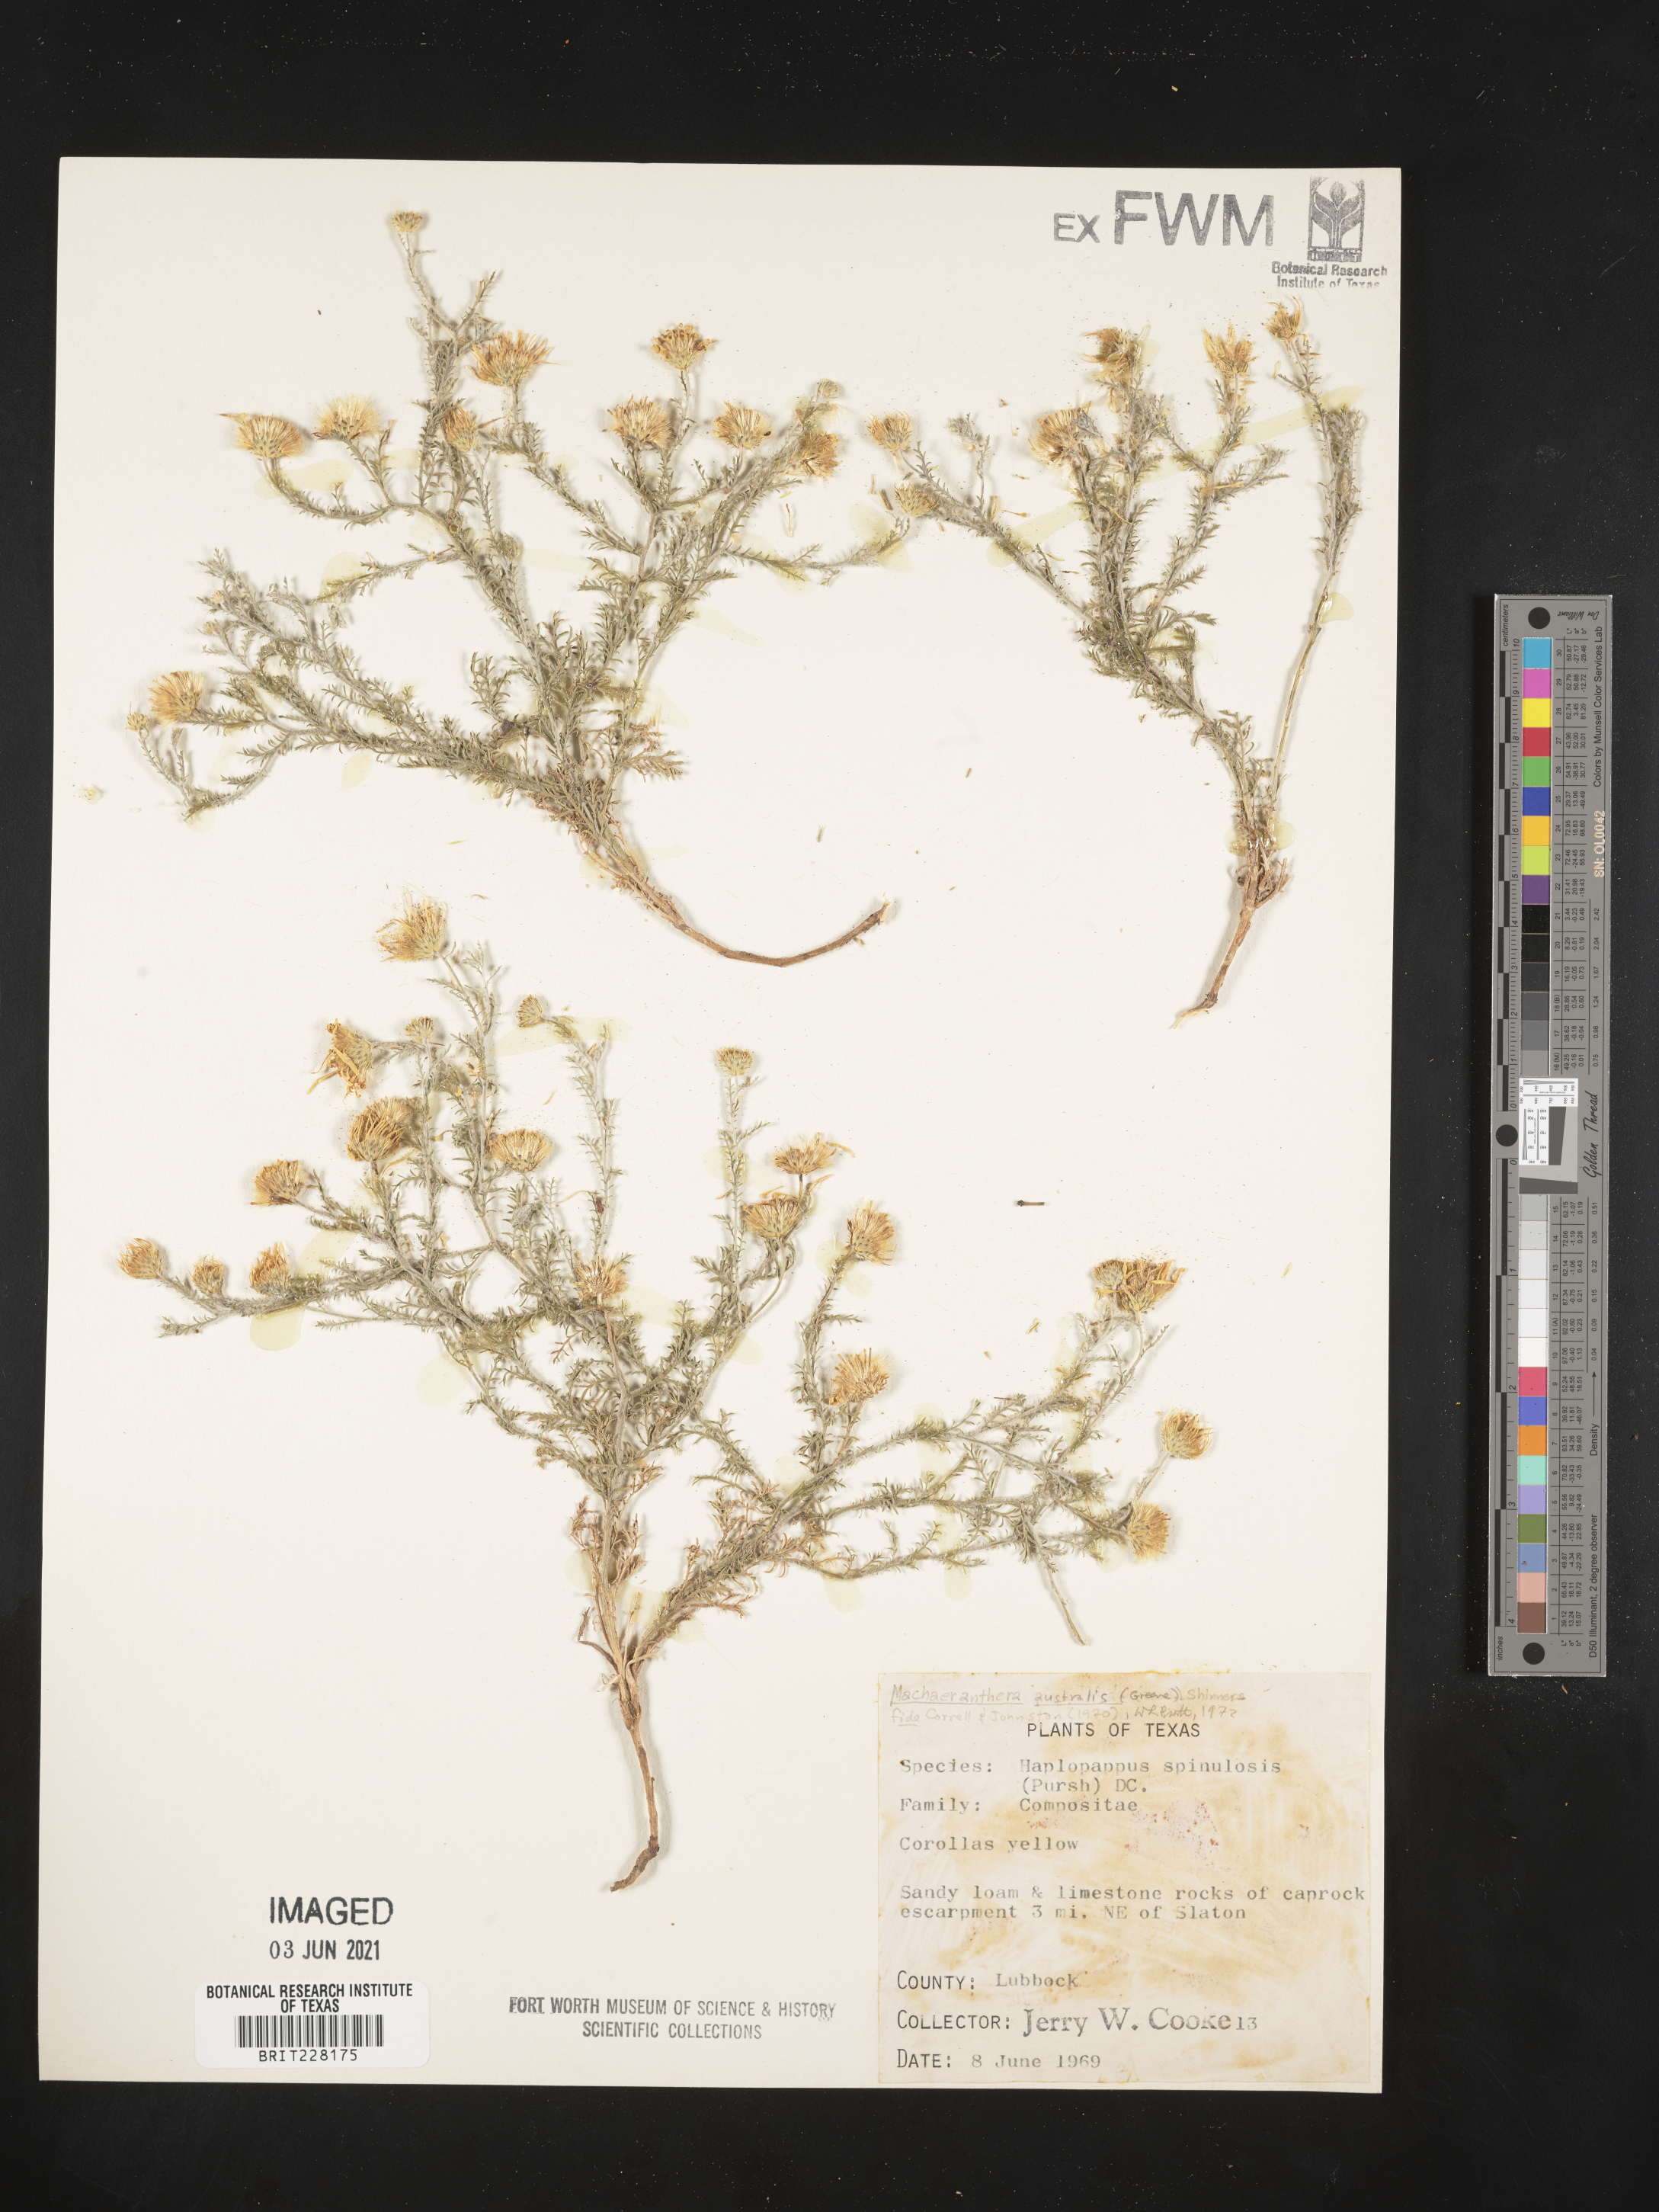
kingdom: Plantae
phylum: Tracheophyta
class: Magnoliopsida
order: Asterales
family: Asteraceae
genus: Xanthisma
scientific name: Xanthisma spinulosum
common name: Spiny goldenweed
